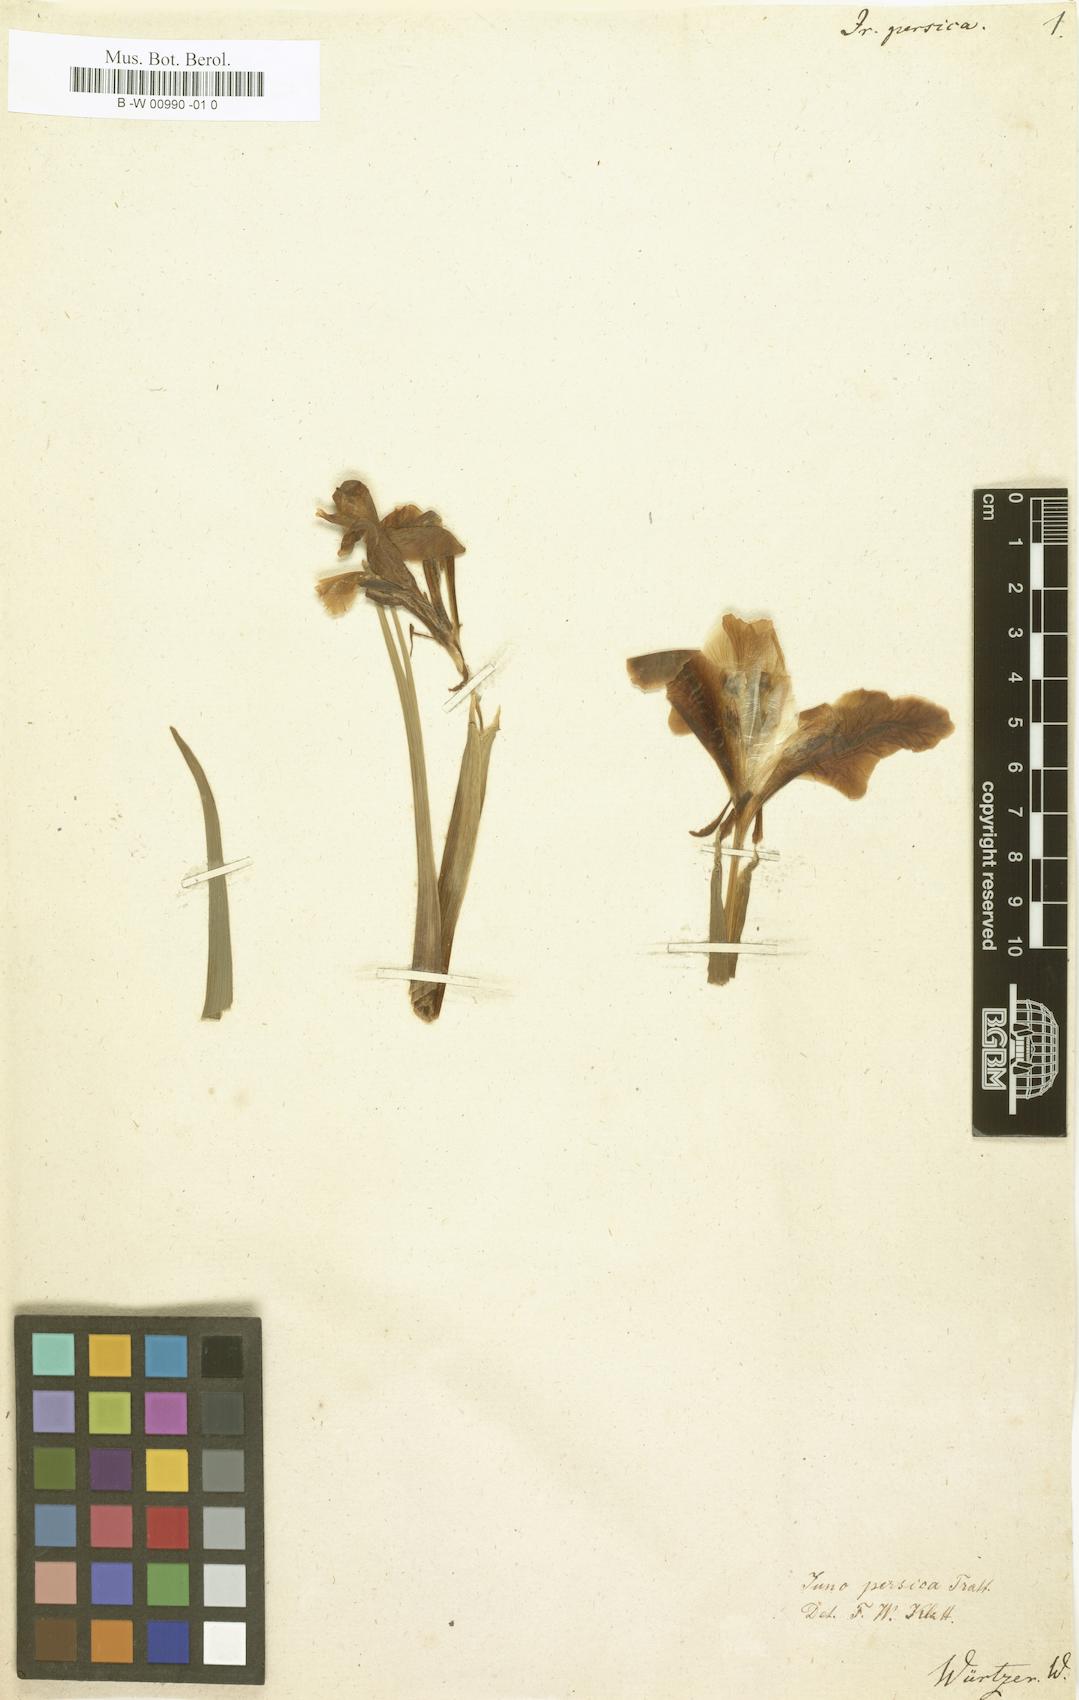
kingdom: Plantae
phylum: Tracheophyta
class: Liliopsida
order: Asparagales
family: Iridaceae
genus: Iris
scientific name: Iris persica
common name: Persian iris
